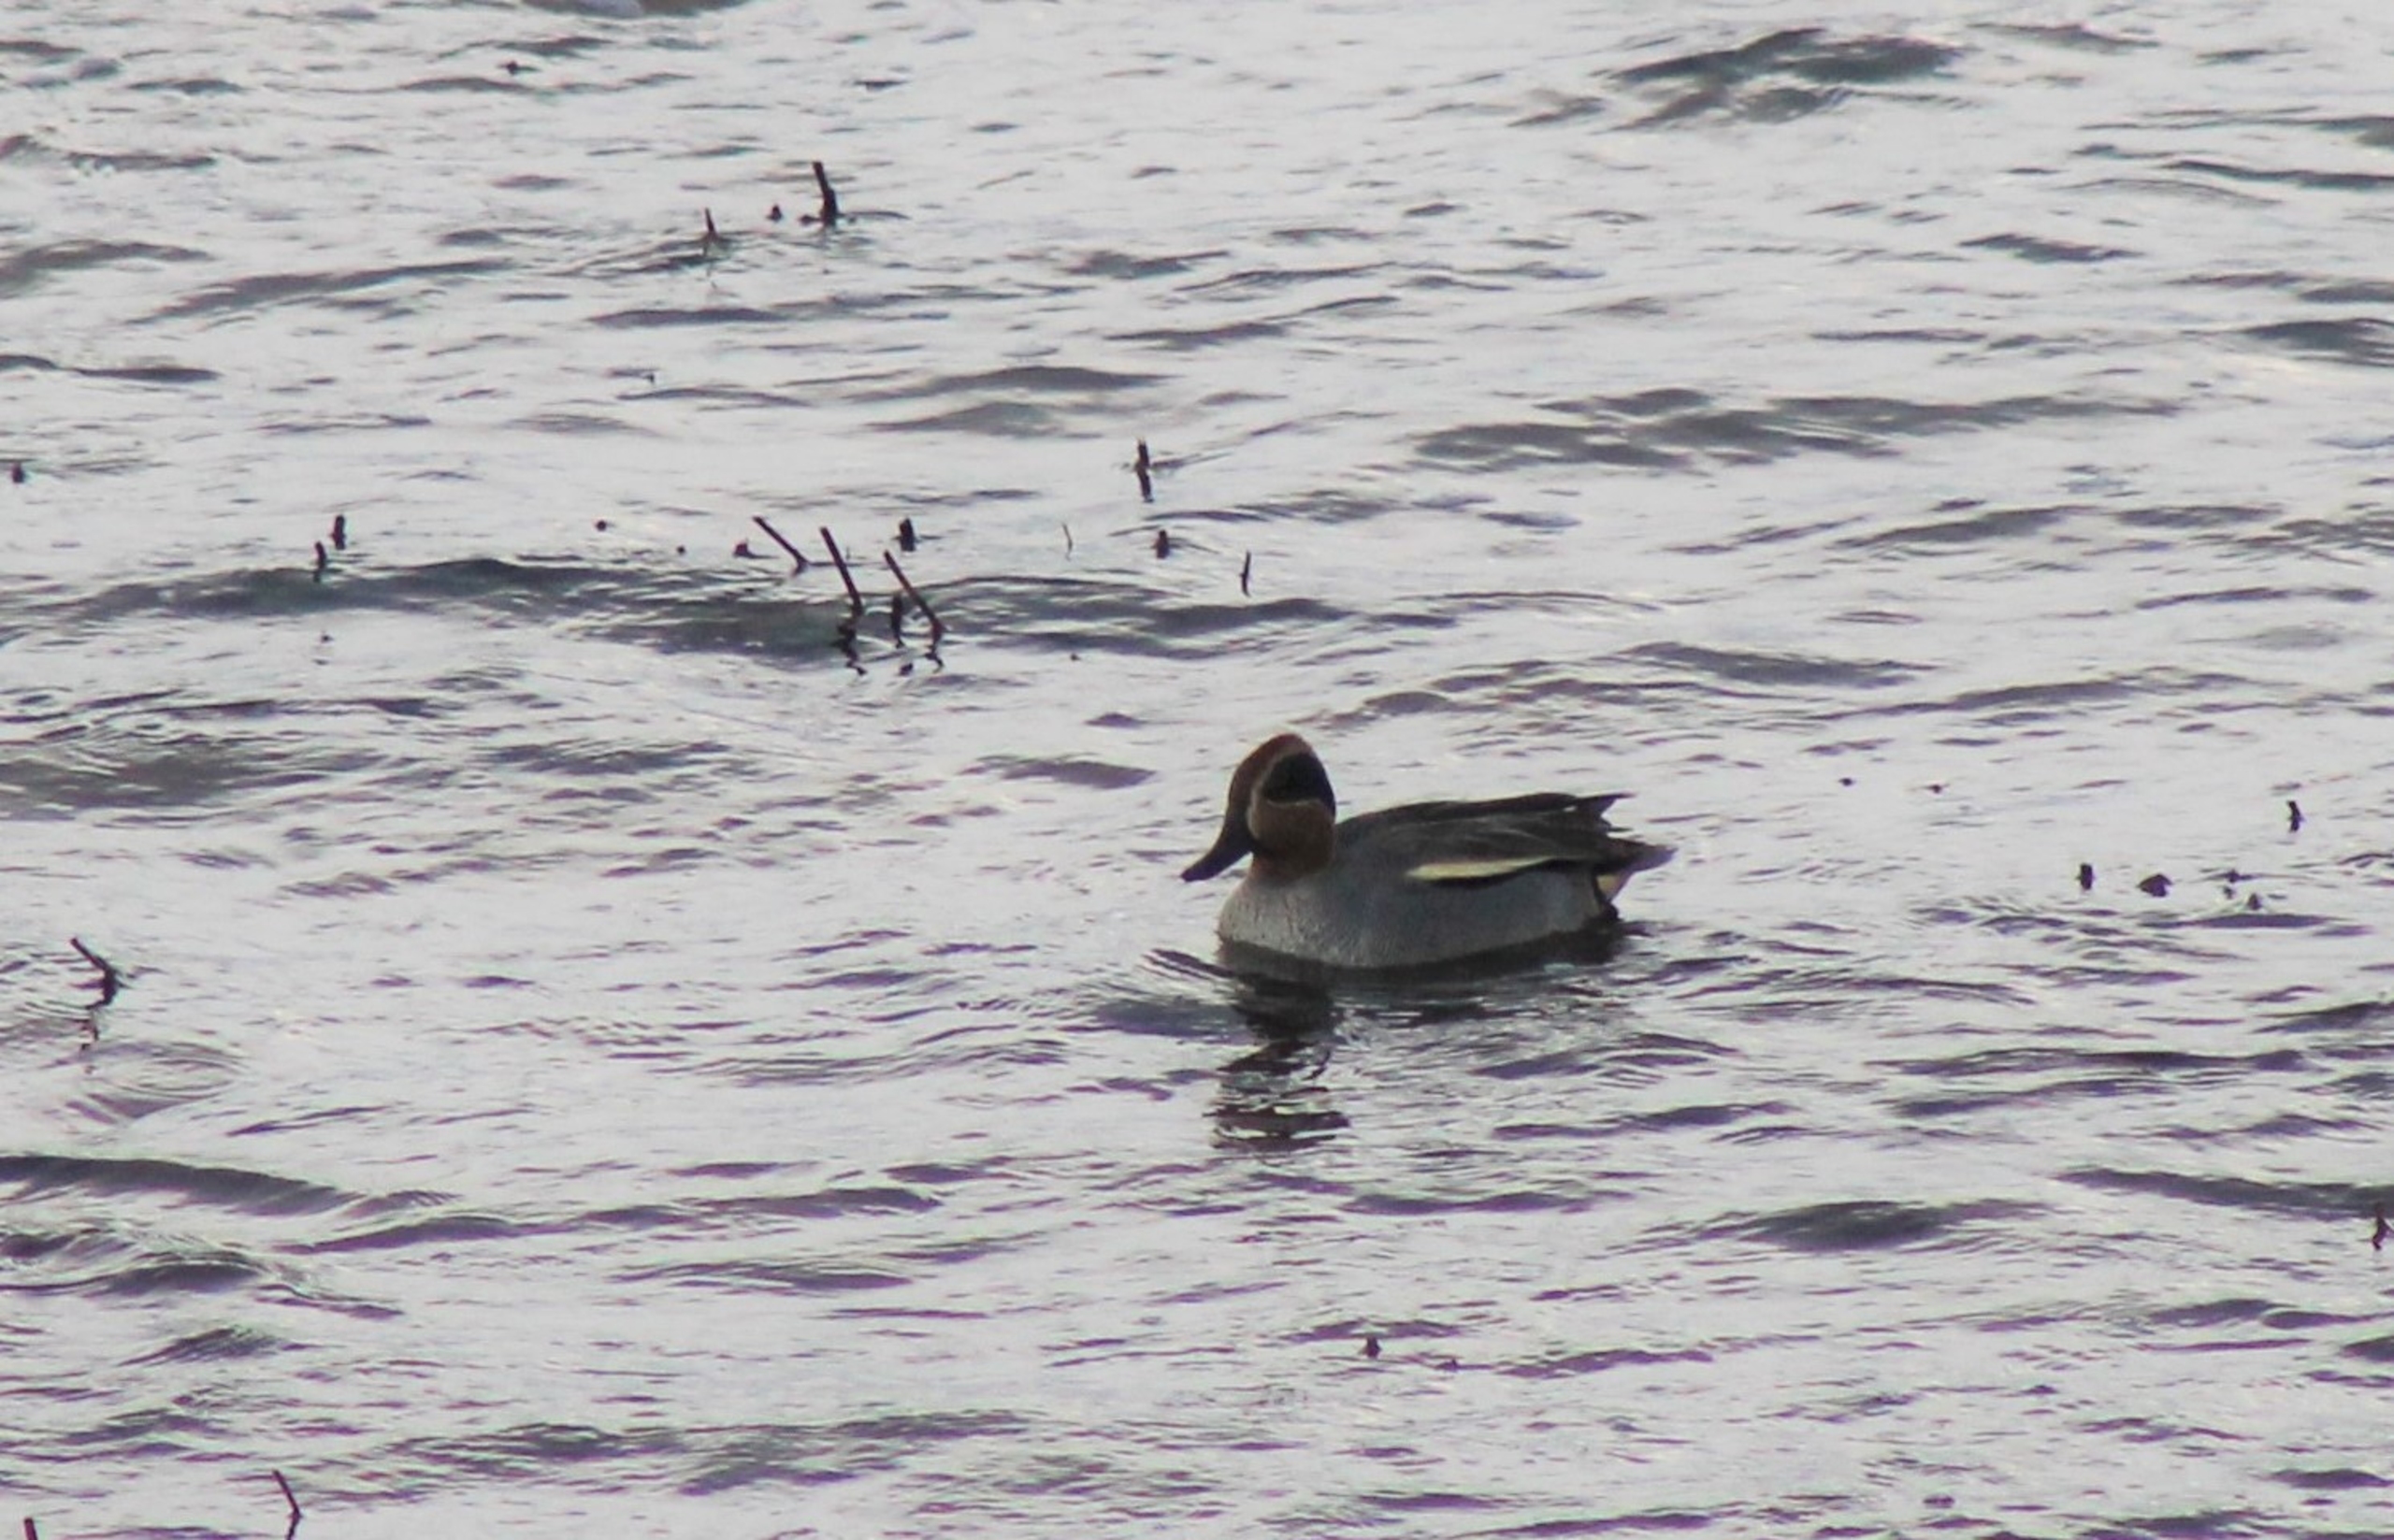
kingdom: Animalia
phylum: Chordata
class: Aves
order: Anseriformes
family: Anatidae
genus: Anas
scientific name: Anas crecca
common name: Krikand
